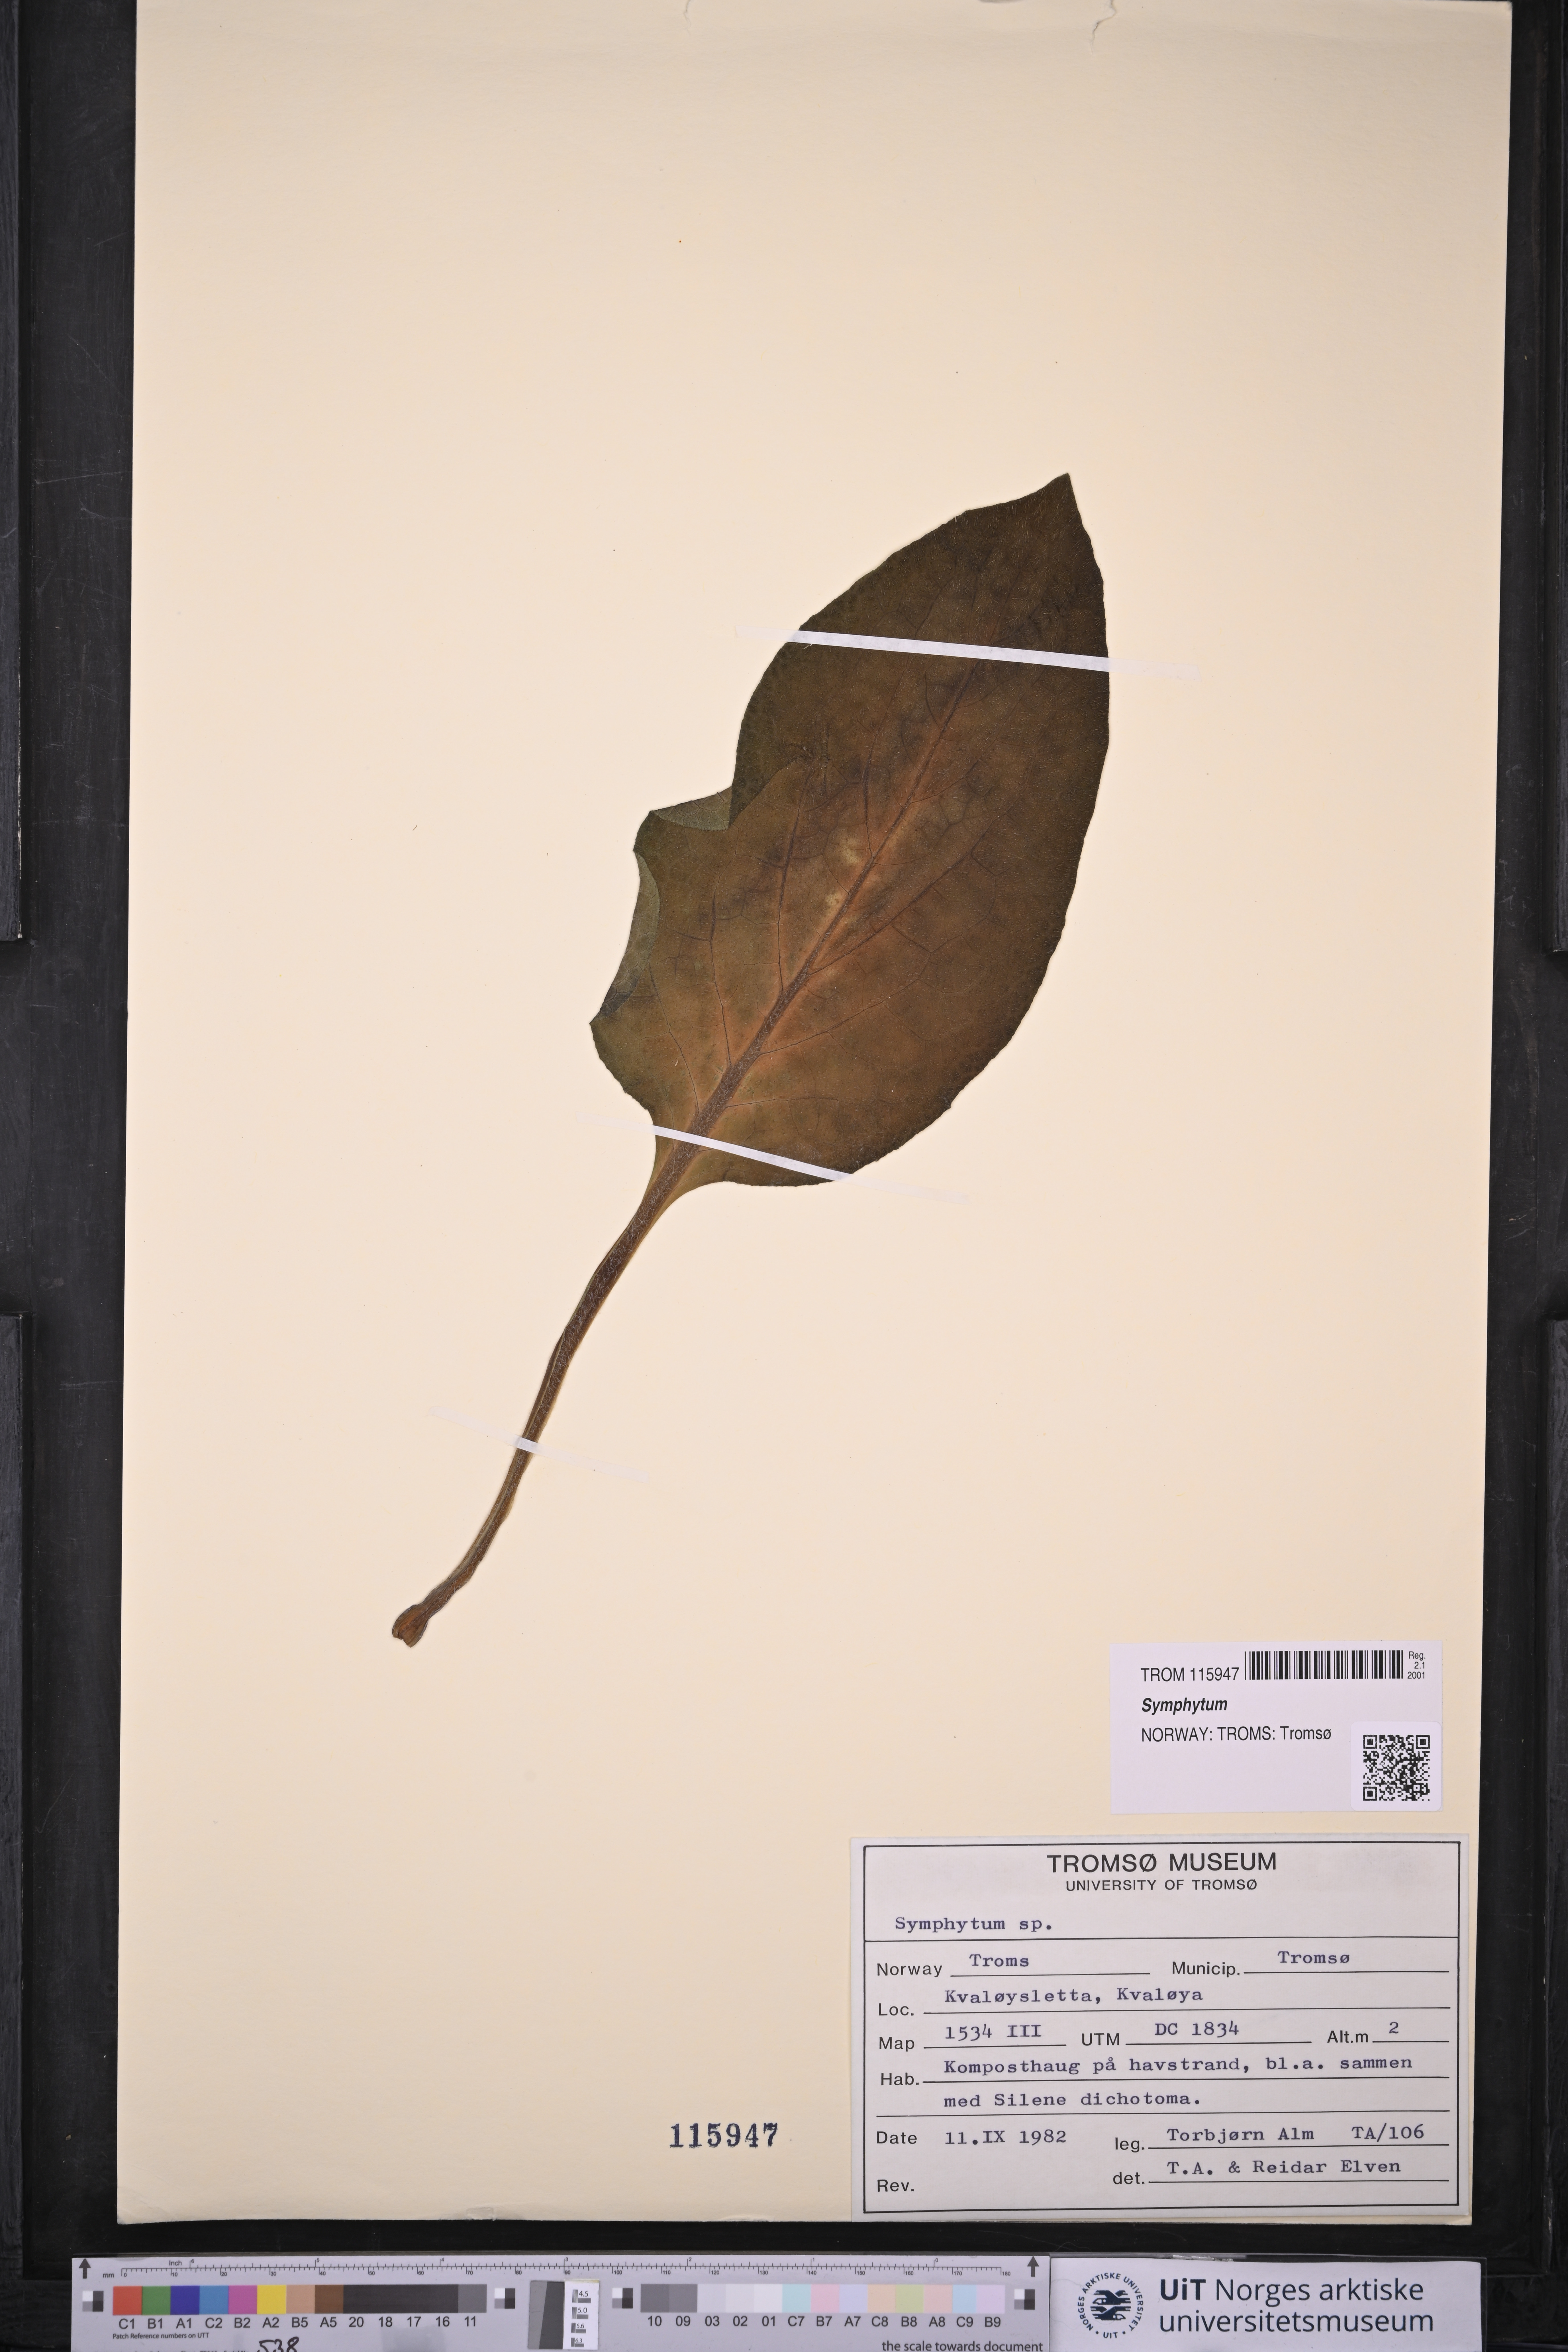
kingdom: Plantae
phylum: Tracheophyta
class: Magnoliopsida
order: Boraginales
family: Boraginaceae
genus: Symphytum
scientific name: Symphytum
